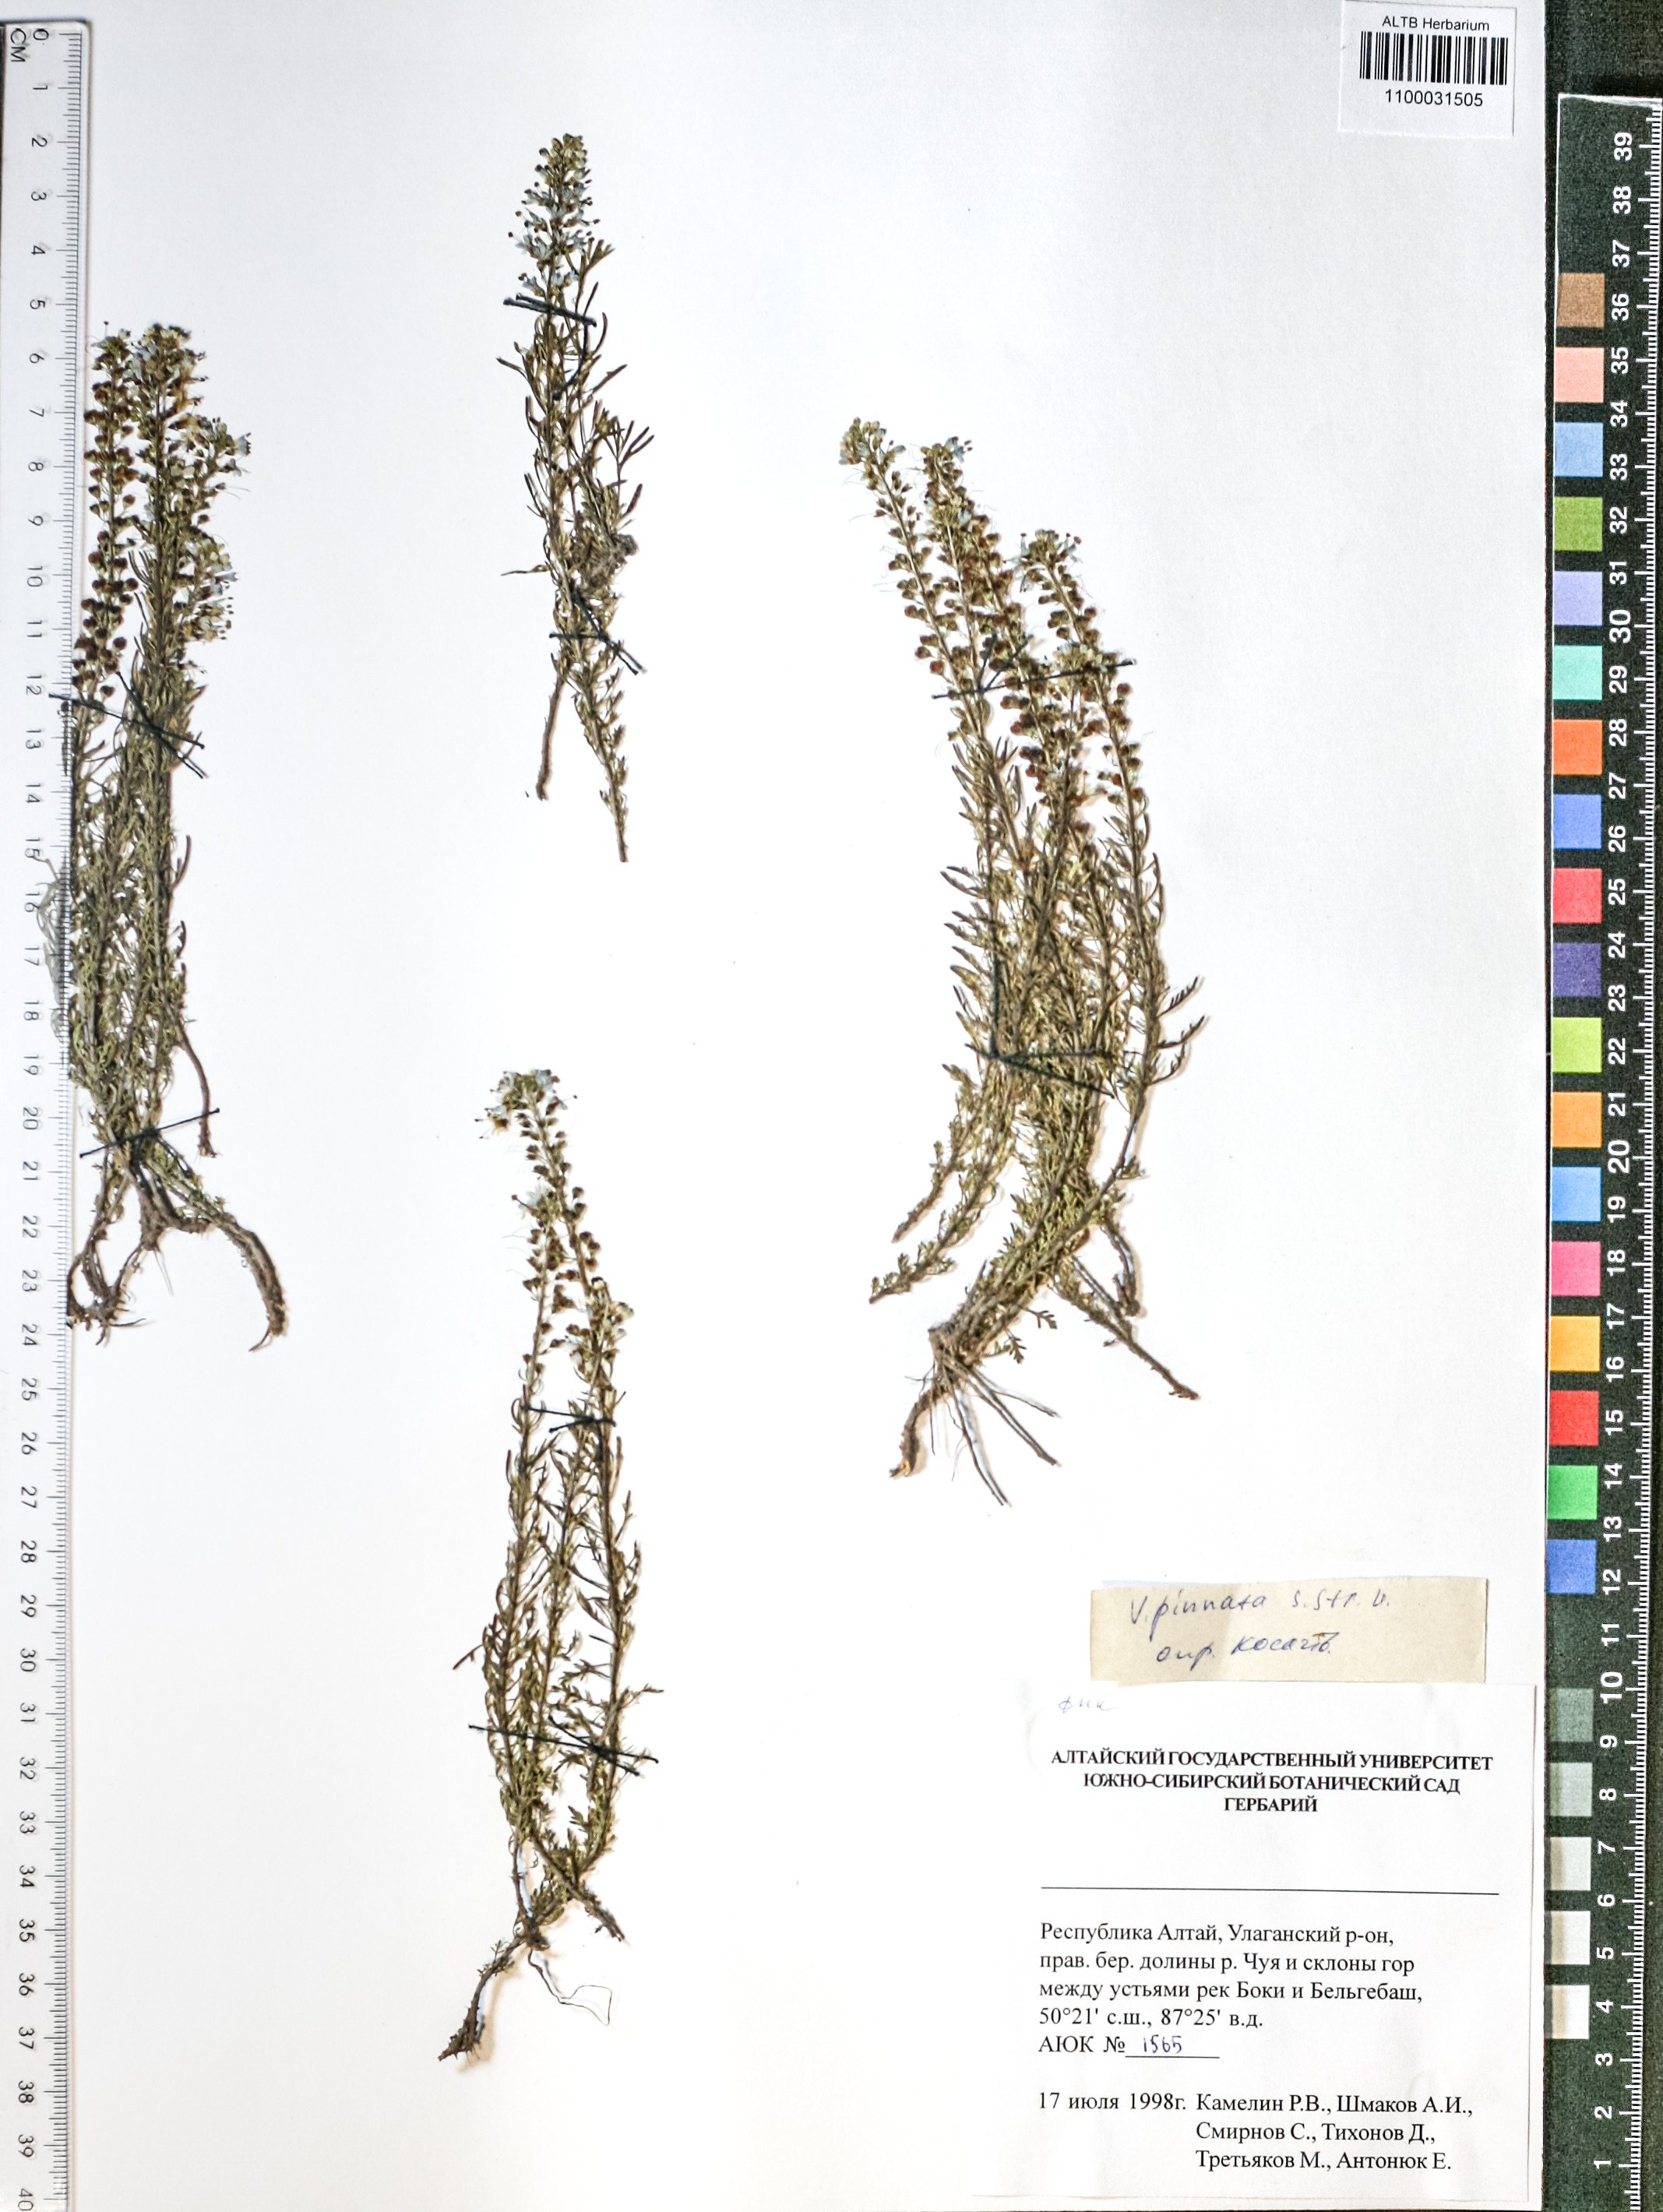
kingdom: Plantae
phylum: Tracheophyta
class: Magnoliopsida
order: Lamiales
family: Plantaginaceae
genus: Veronica
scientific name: Veronica pinnata
